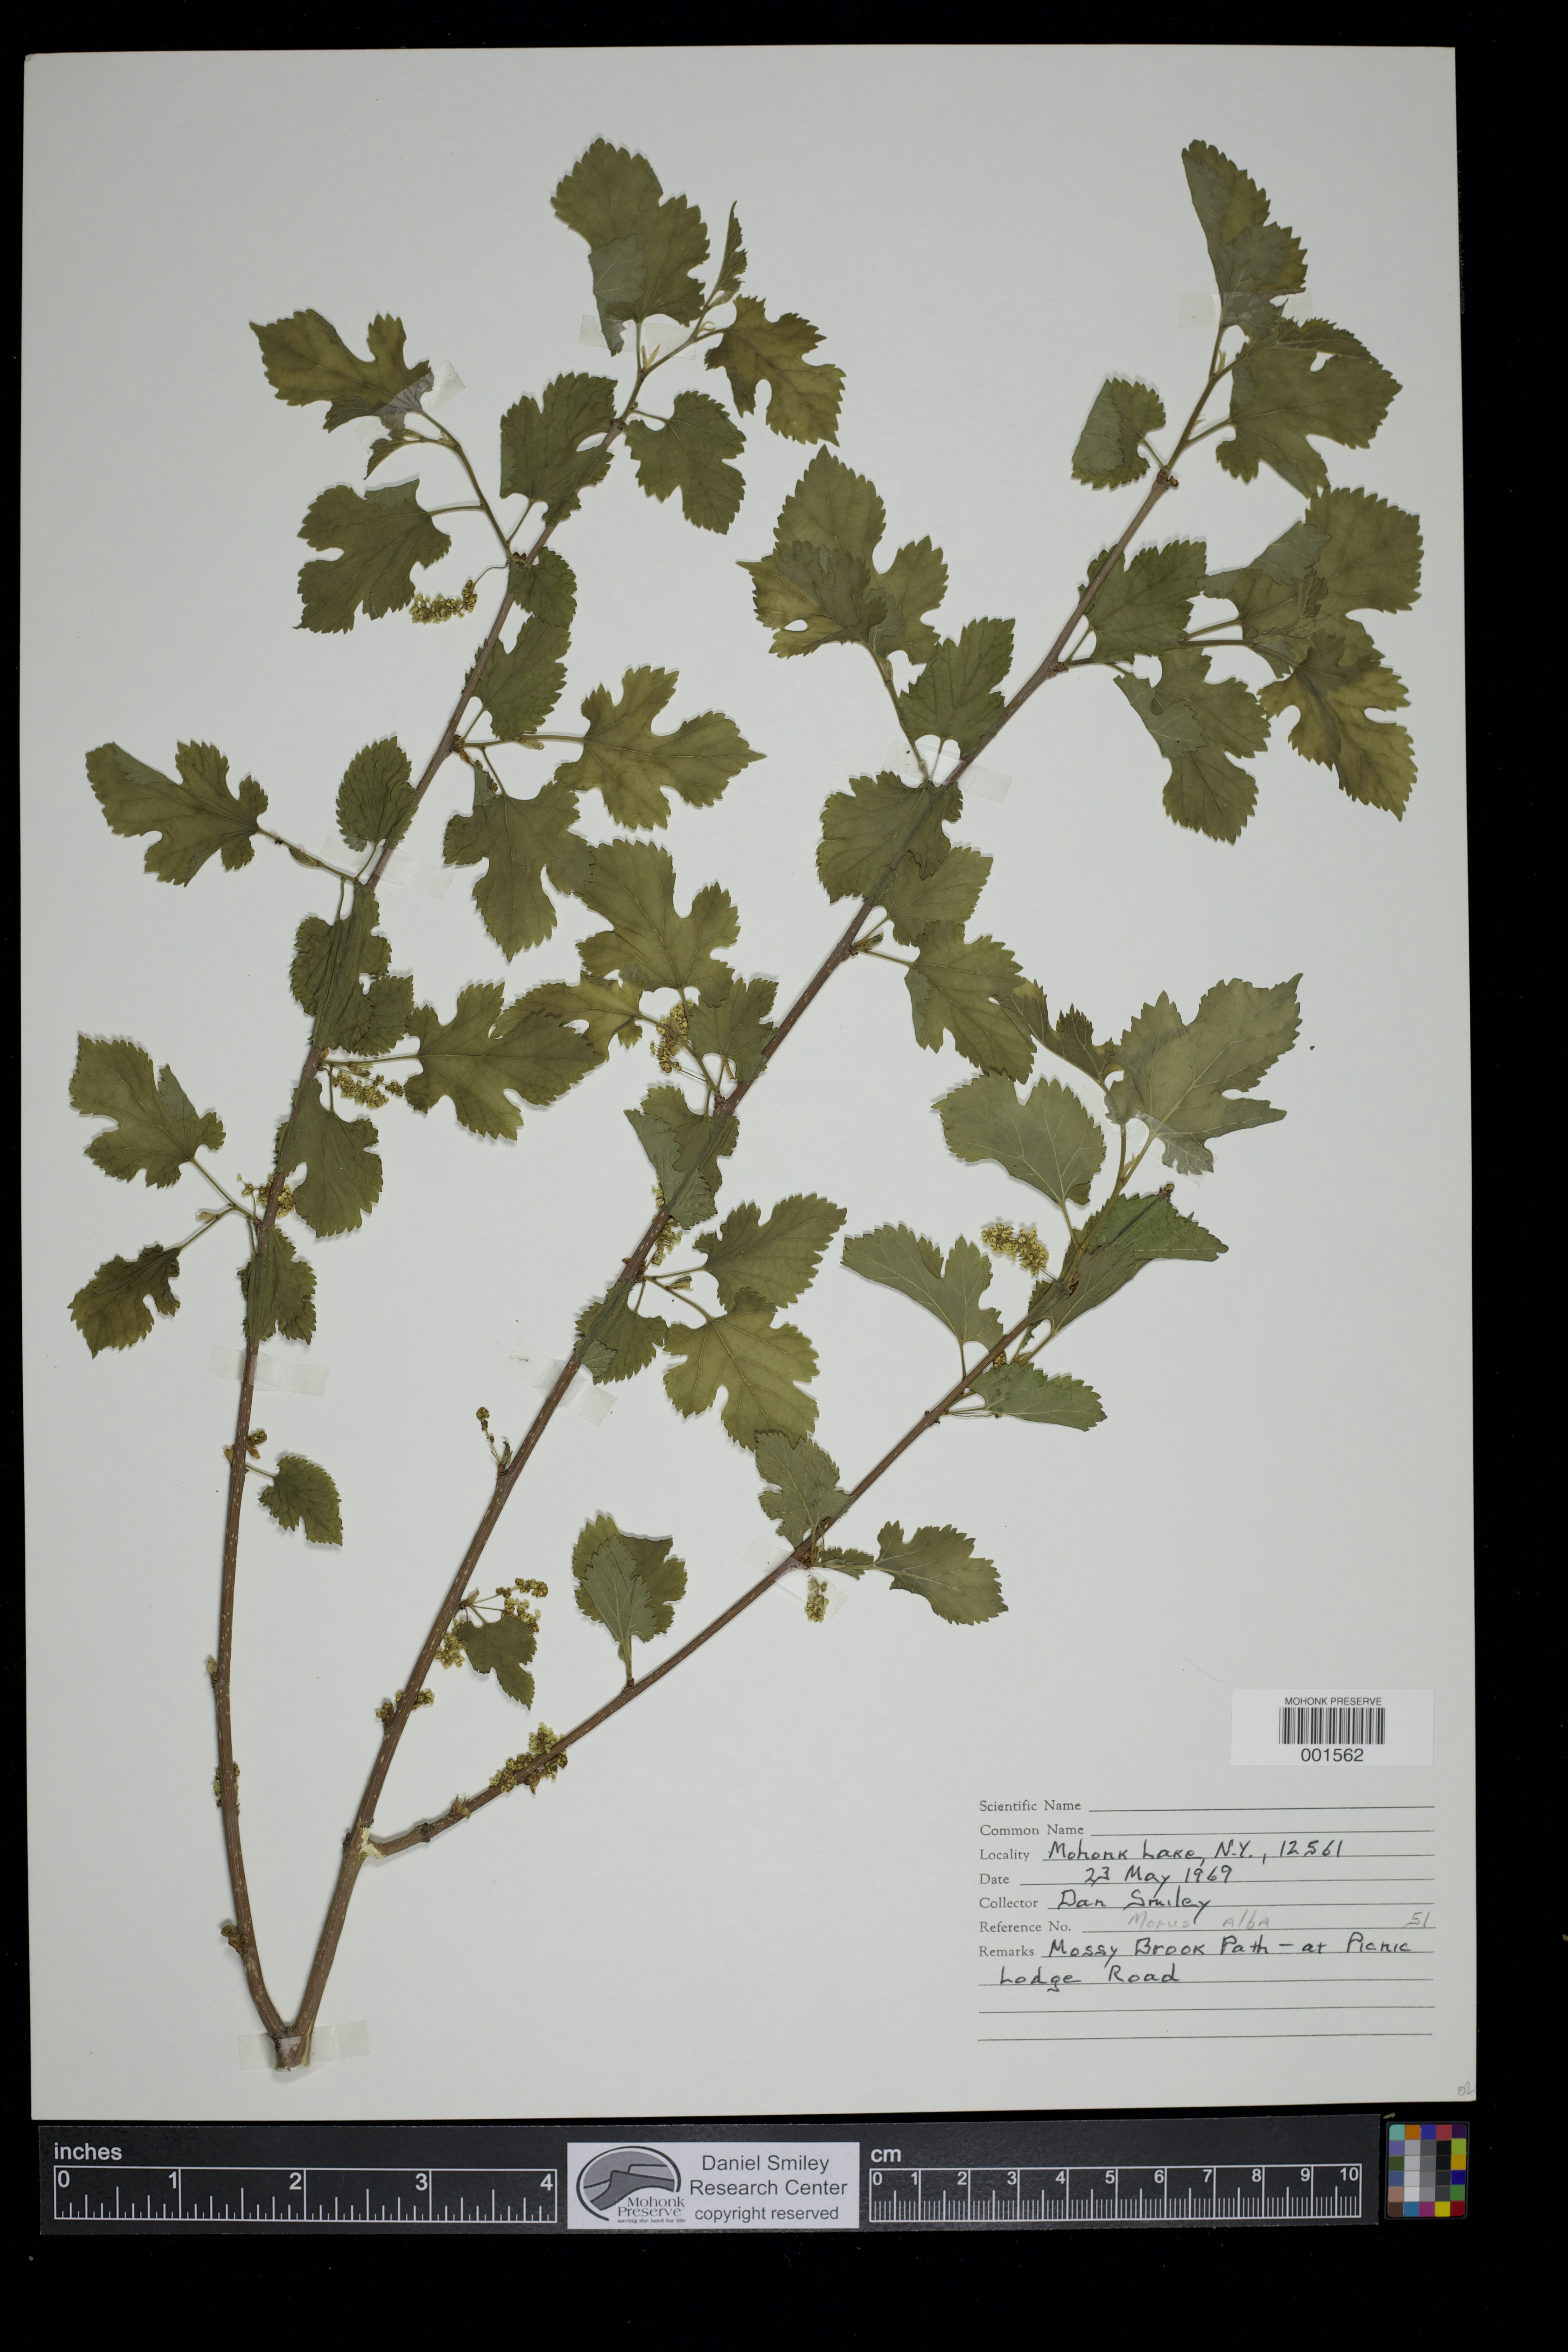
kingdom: Plantae
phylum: Tracheophyta
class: Magnoliopsida
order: Rosales
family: Moraceae
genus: Morus
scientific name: Morus alba
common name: White mulberry
